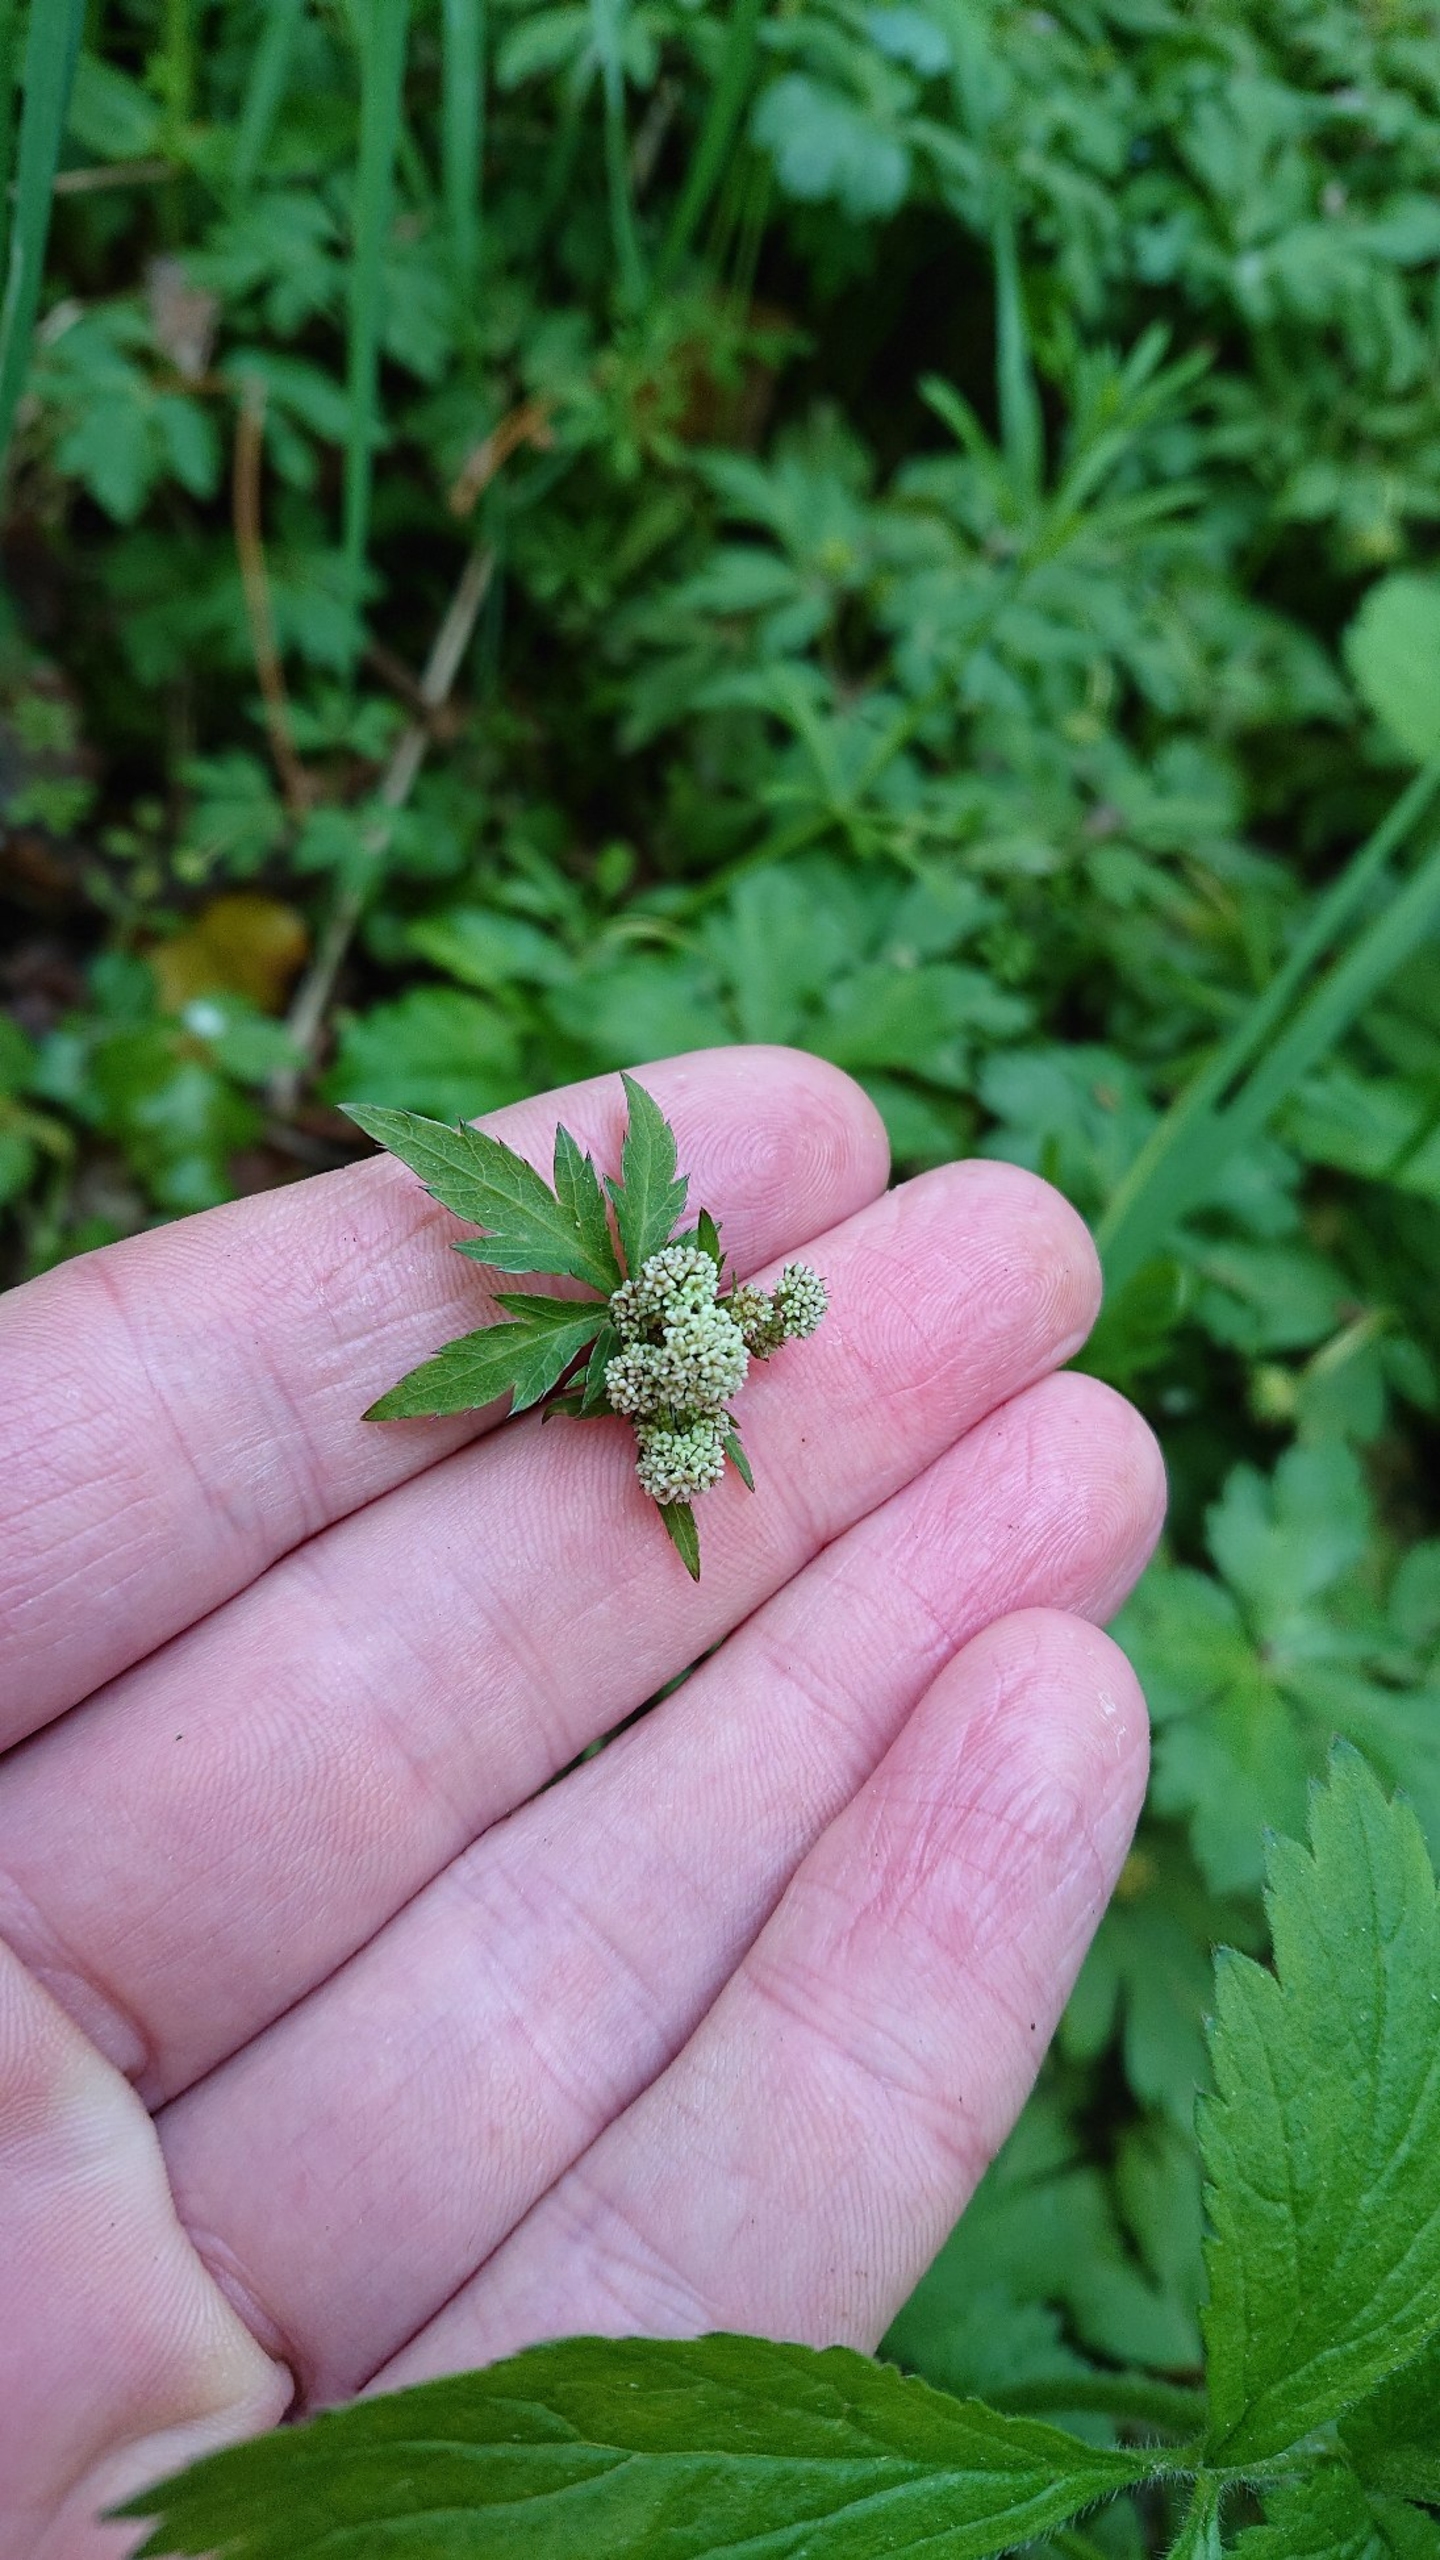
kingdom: Plantae
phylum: Tracheophyta
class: Magnoliopsida
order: Apiales
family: Apiaceae
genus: Sanicula
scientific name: Sanicula europaea
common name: Sanikel
